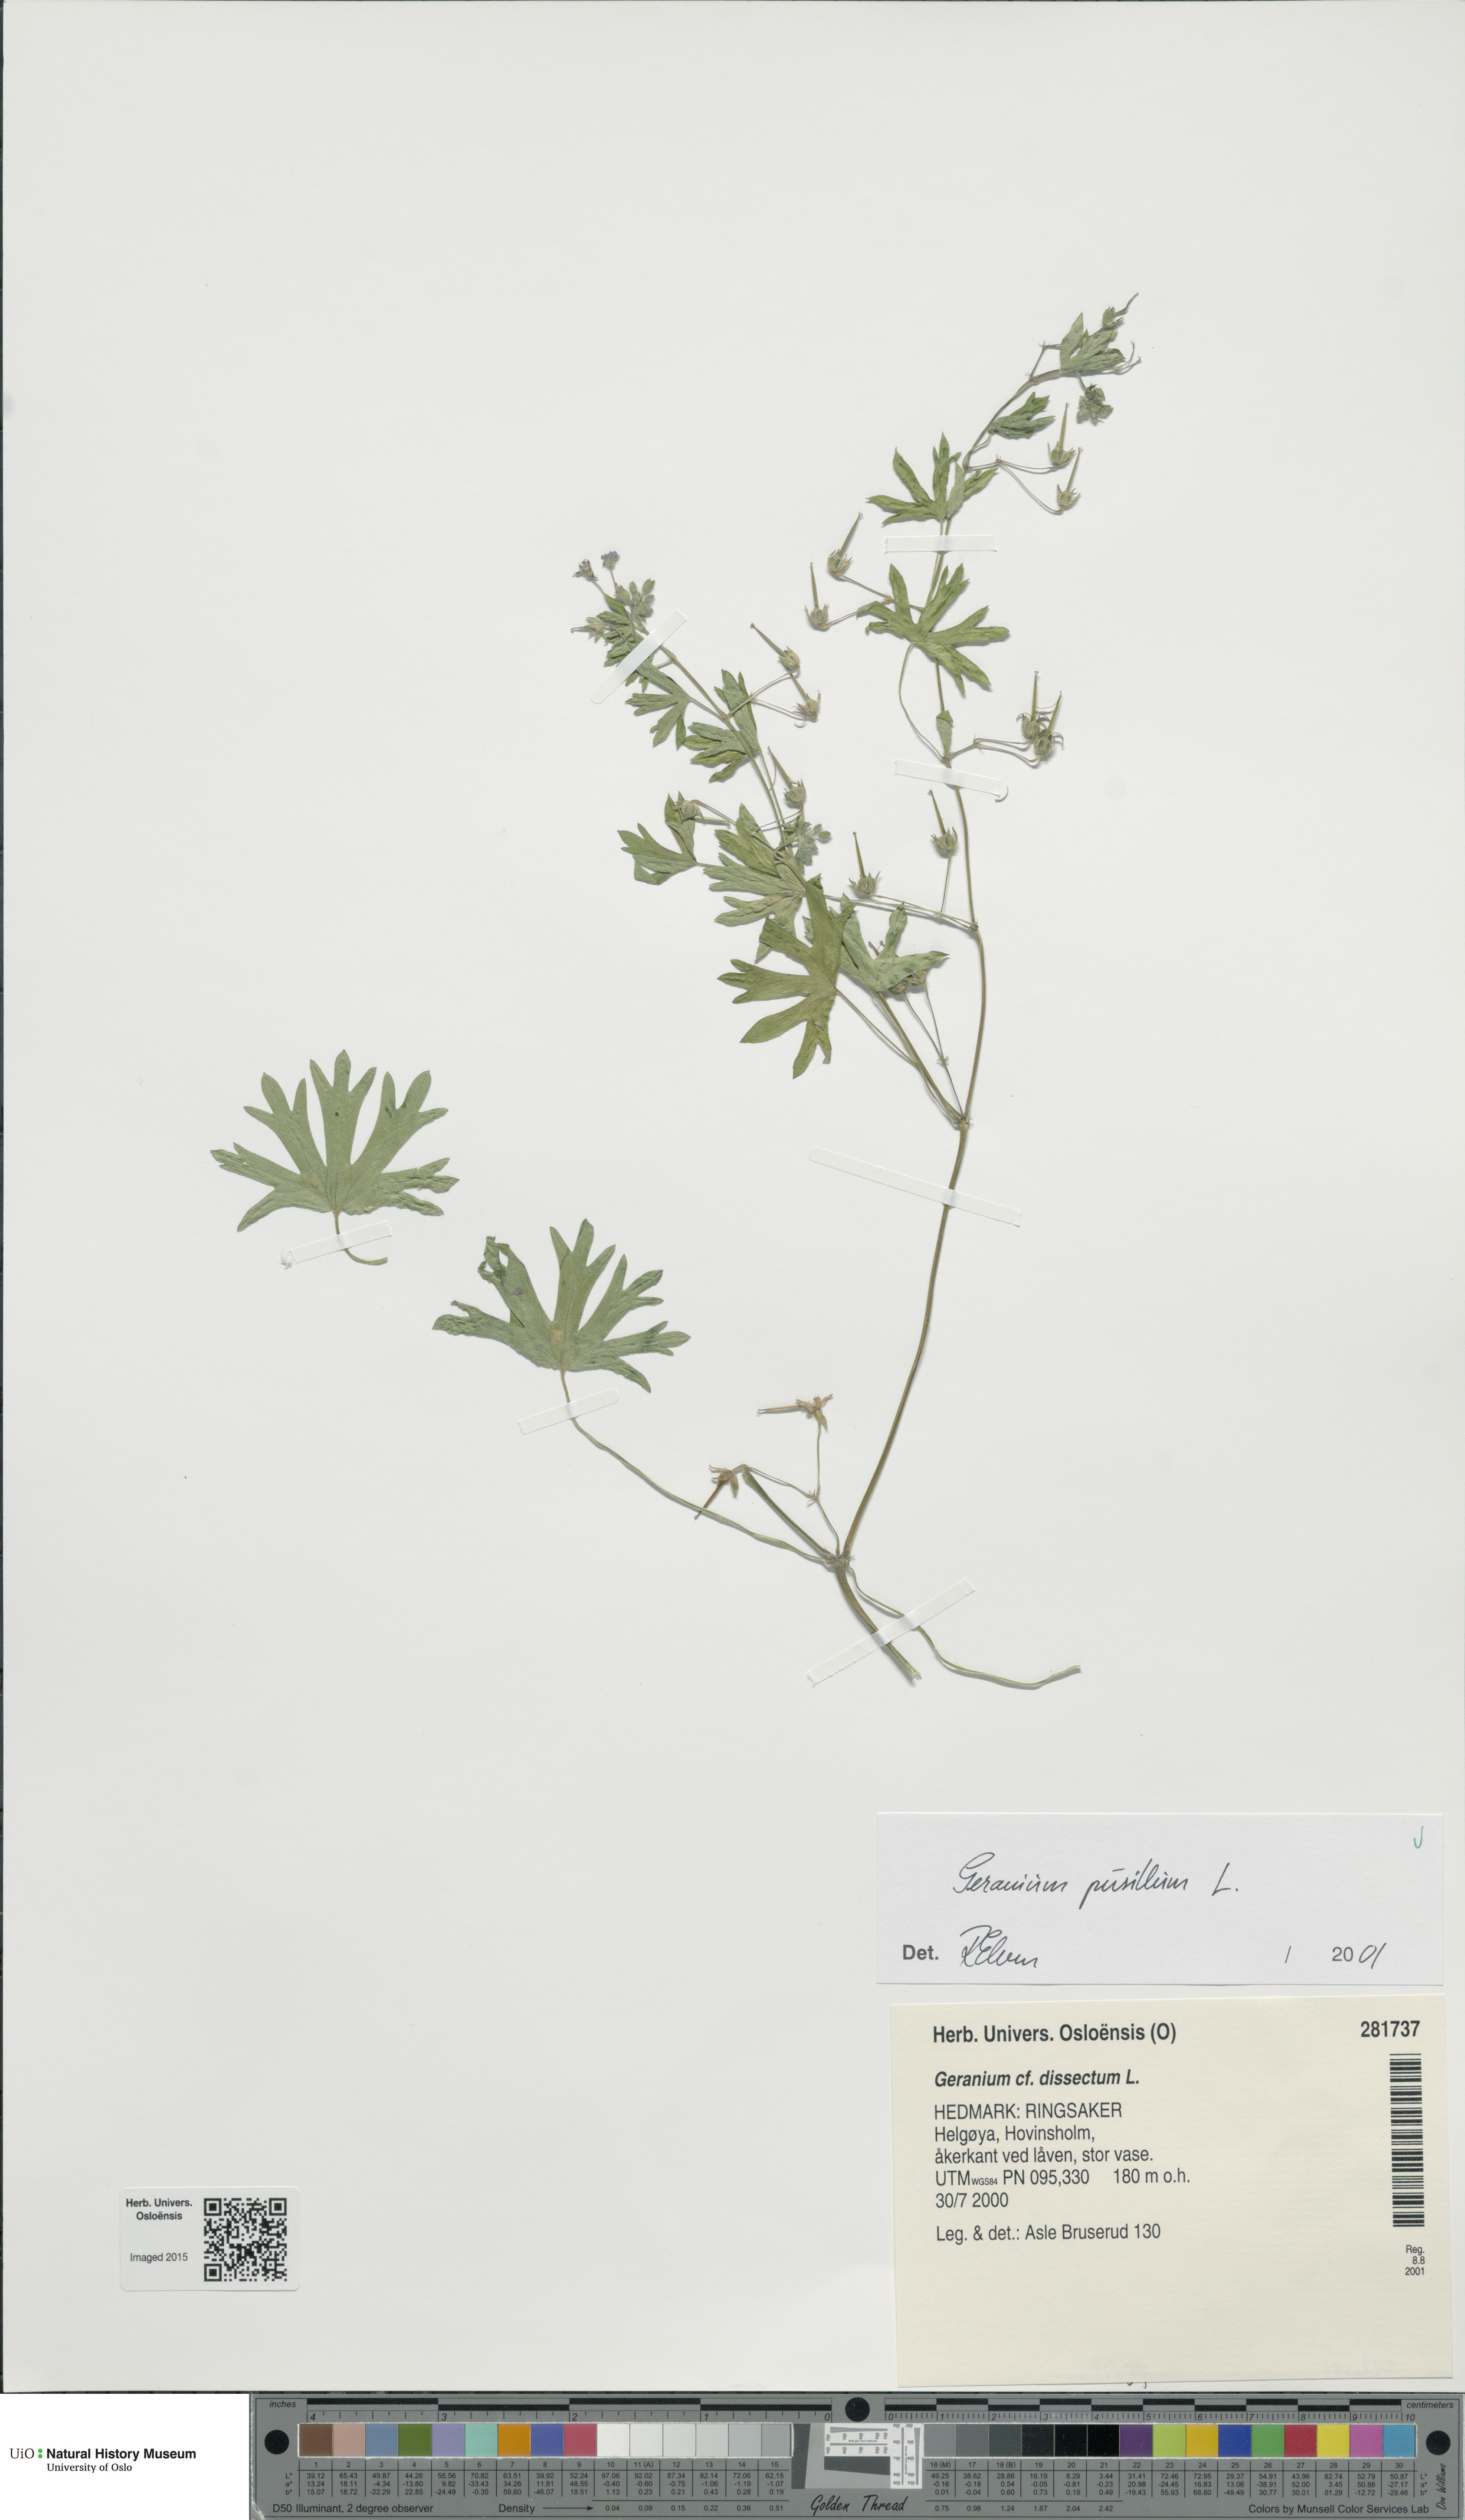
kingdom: Plantae
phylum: Tracheophyta
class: Magnoliopsida
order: Geraniales
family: Geraniaceae
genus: Geranium
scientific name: Geranium pusillum
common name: Small geranium
